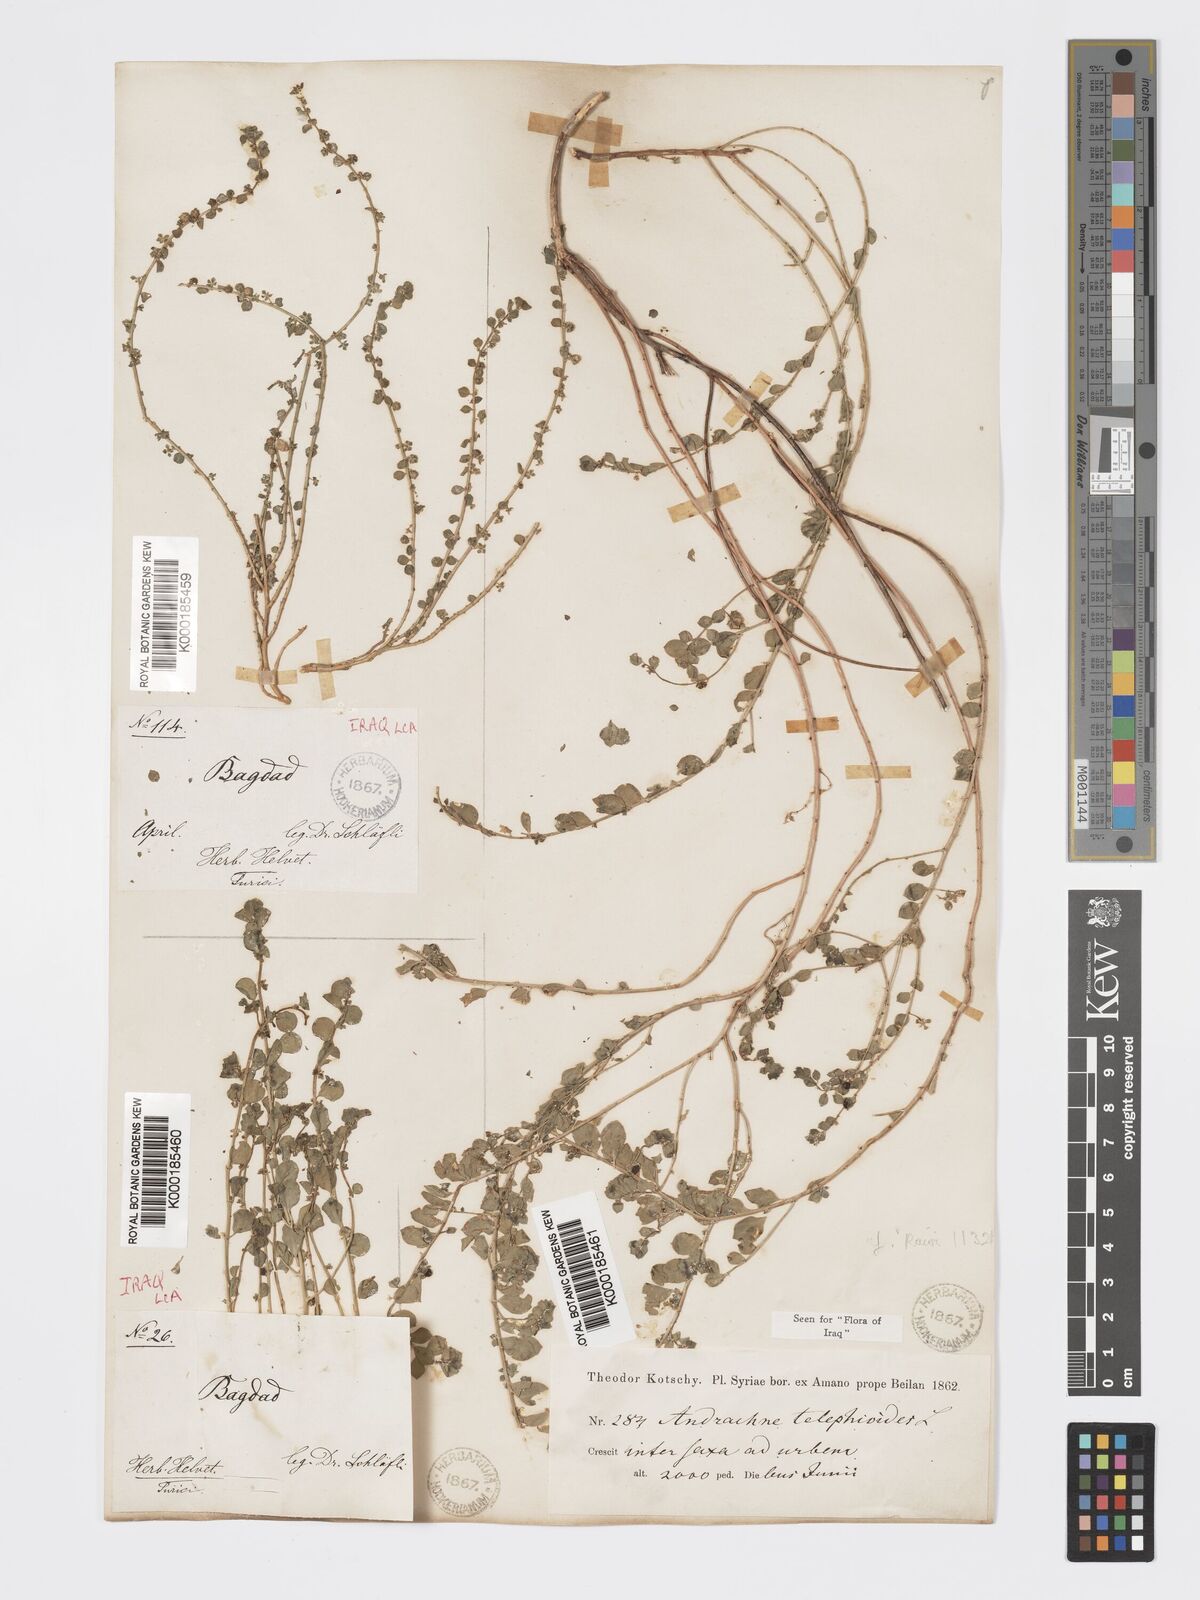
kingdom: Plantae
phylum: Tracheophyta
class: Magnoliopsida
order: Malpighiales
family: Phyllanthaceae
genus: Andrachne
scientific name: Andrachne telephioides
